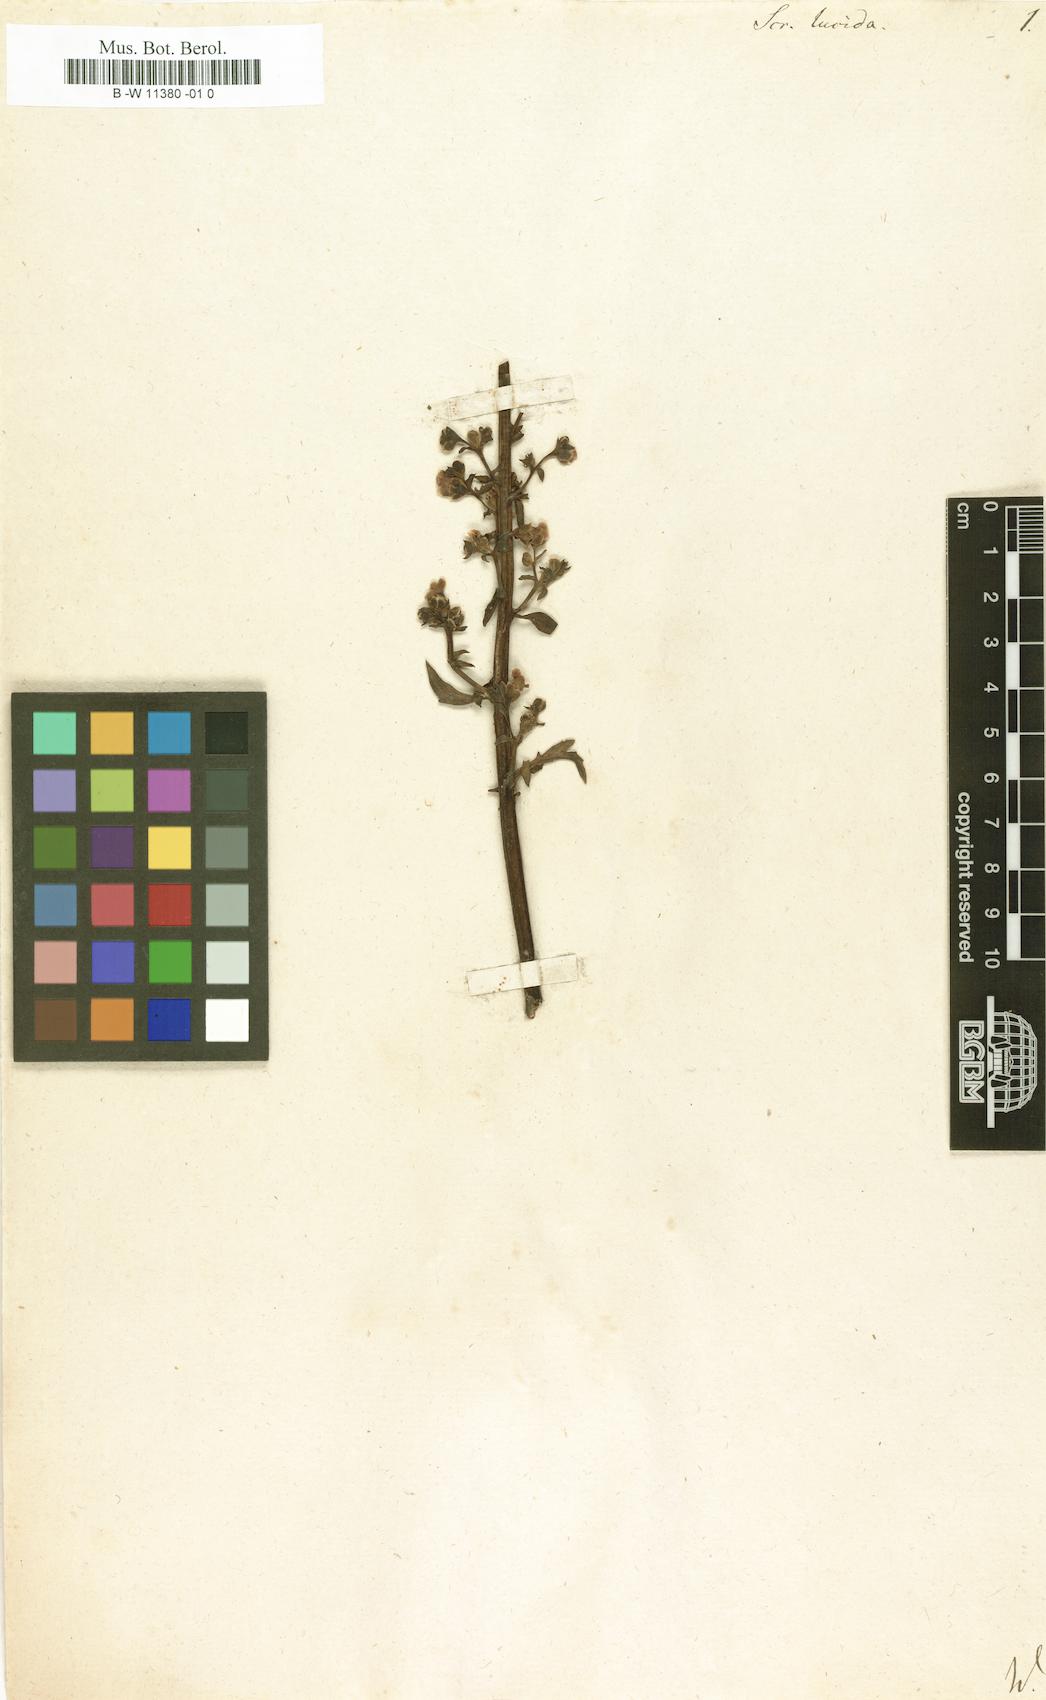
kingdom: Plantae
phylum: Tracheophyta
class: Magnoliopsida
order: Lamiales
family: Scrophulariaceae
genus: Scrophularia
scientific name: Scrophularia lucida
